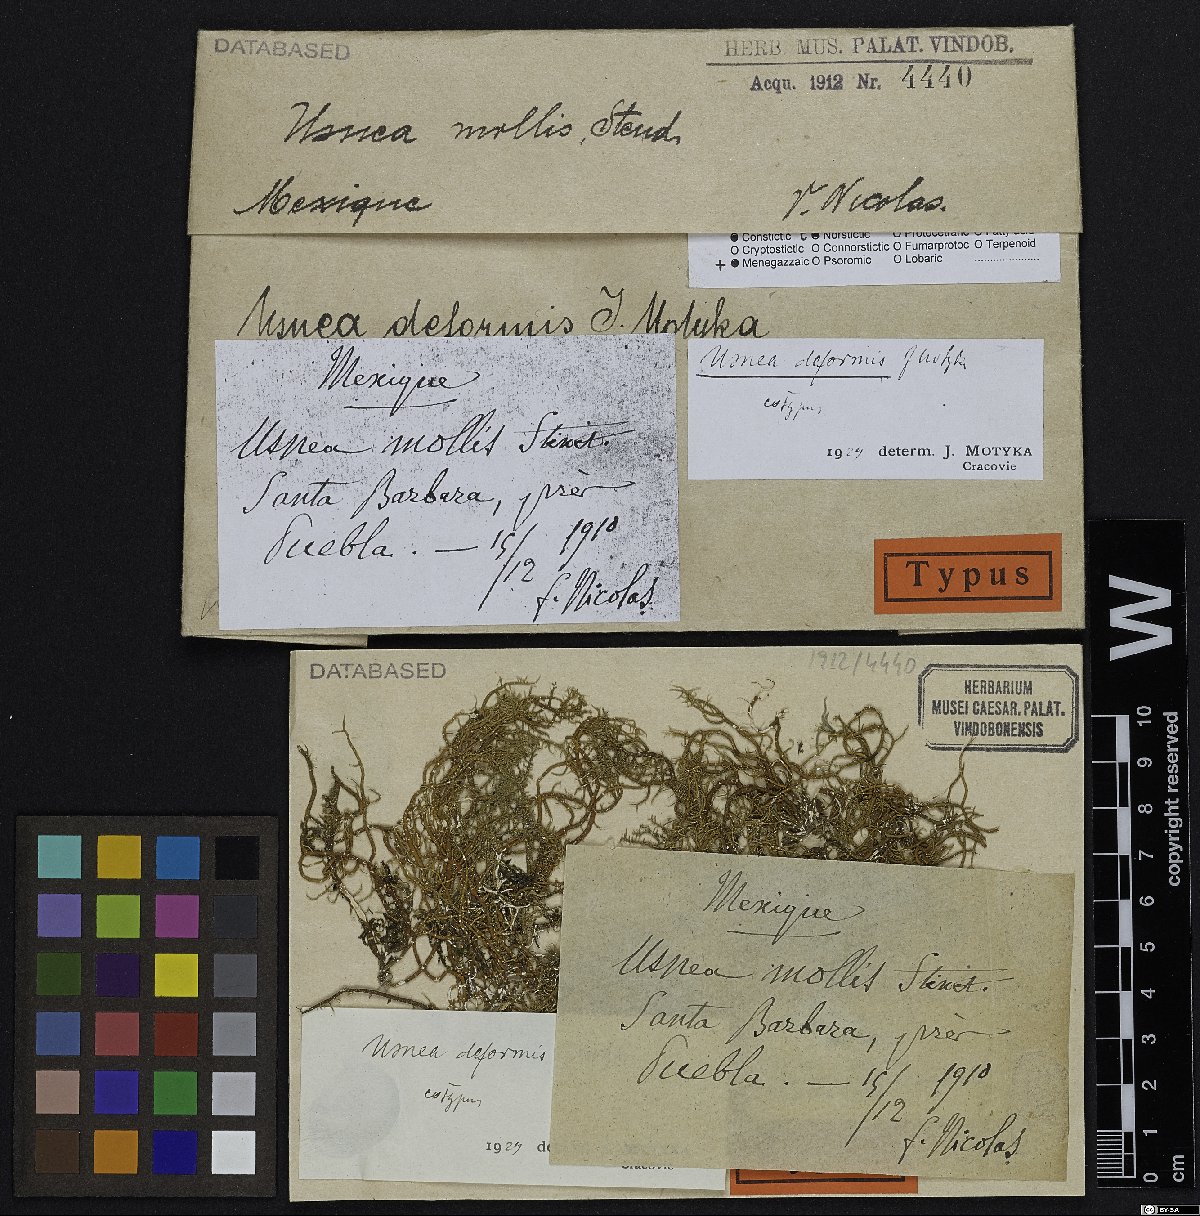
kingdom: Fungi
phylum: Ascomycota
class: Lecanoromycetes
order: Lecanorales
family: Parmeliaceae
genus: Usnea
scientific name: Usnea deformis
